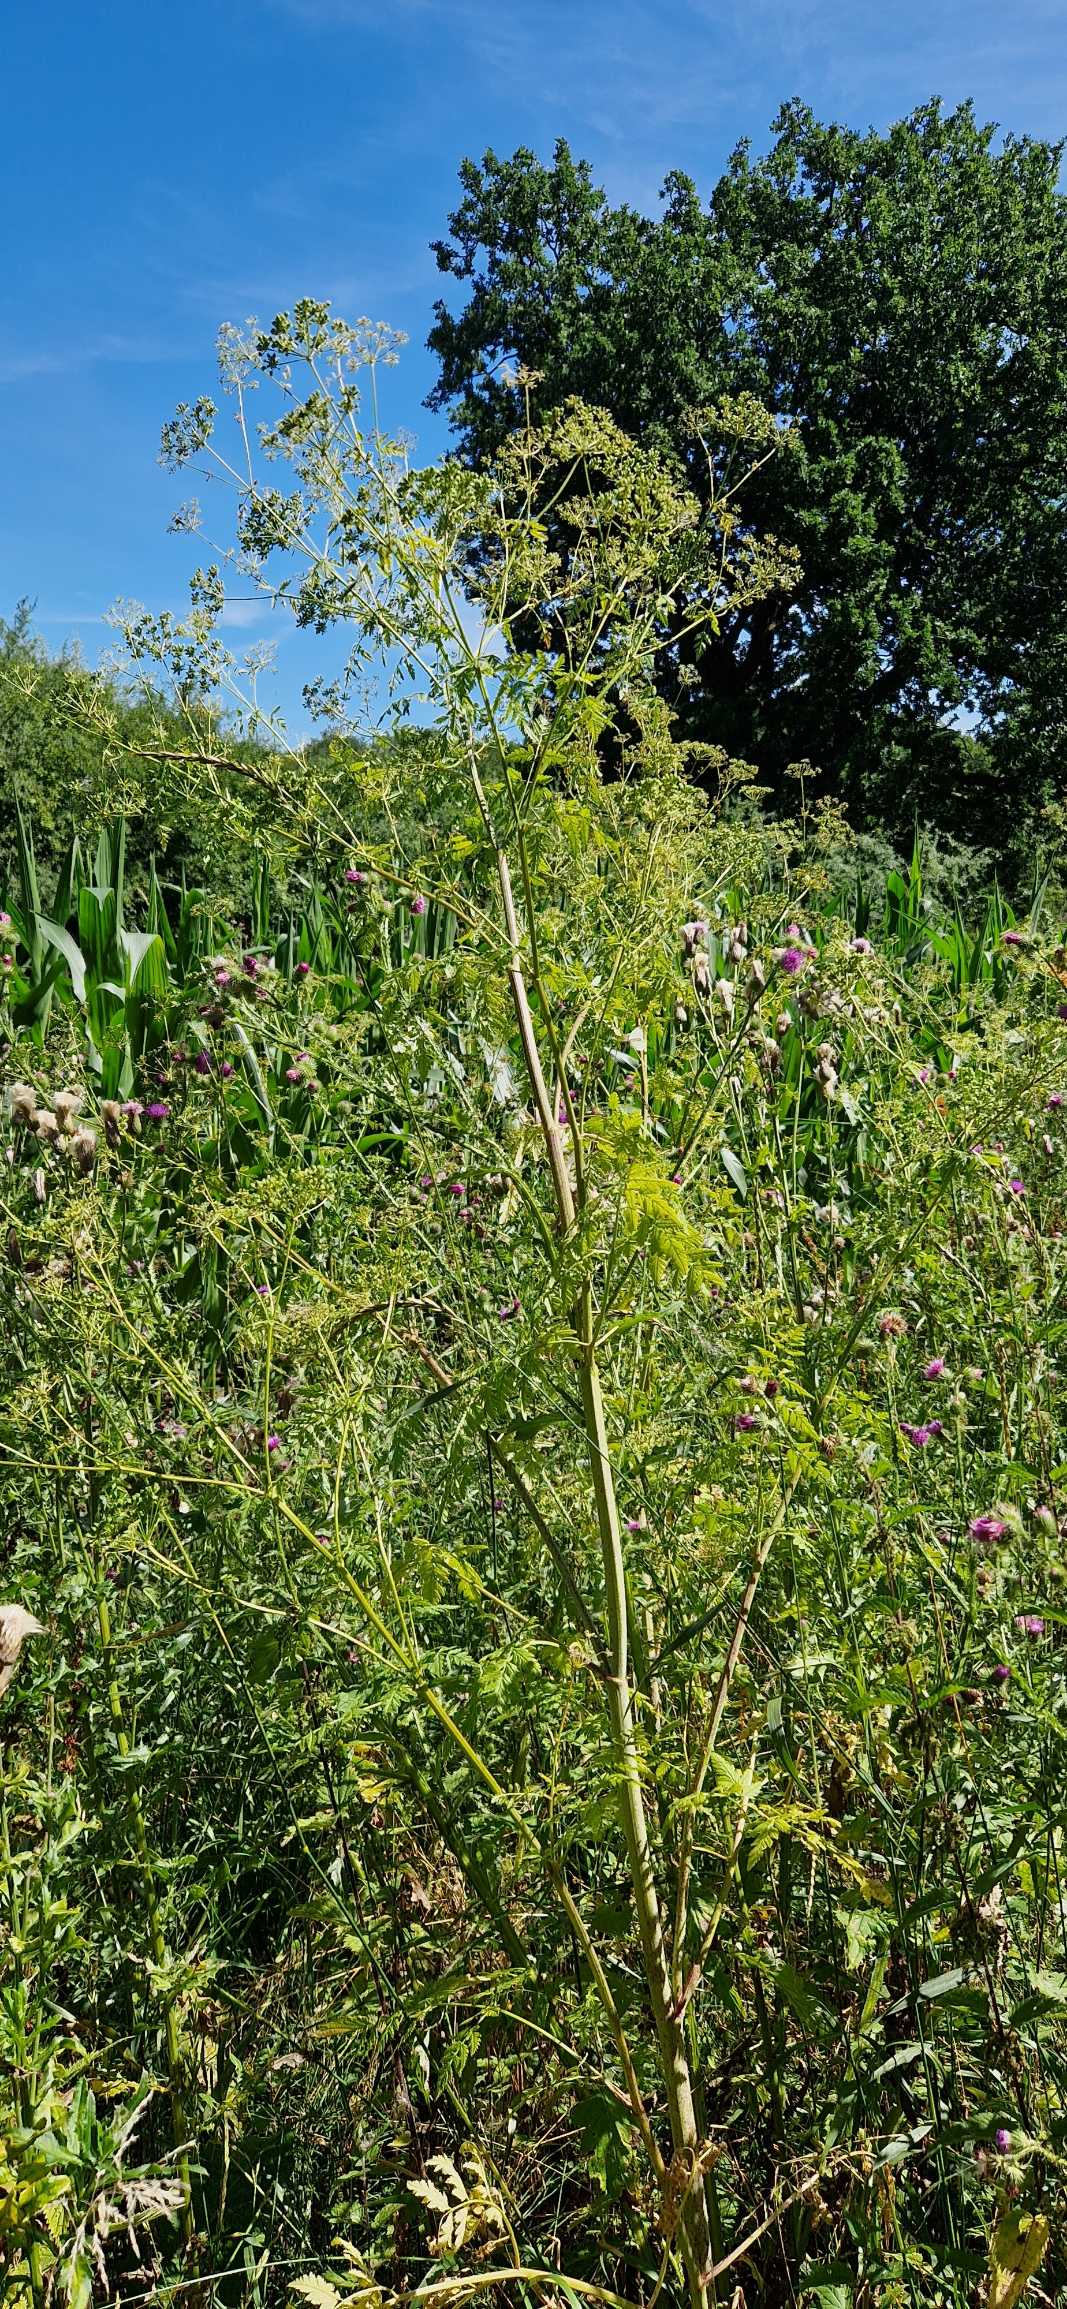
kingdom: Plantae
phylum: Tracheophyta
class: Magnoliopsida
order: Apiales
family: Apiaceae
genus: Conium
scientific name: Conium maculatum
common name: Skarntyde
